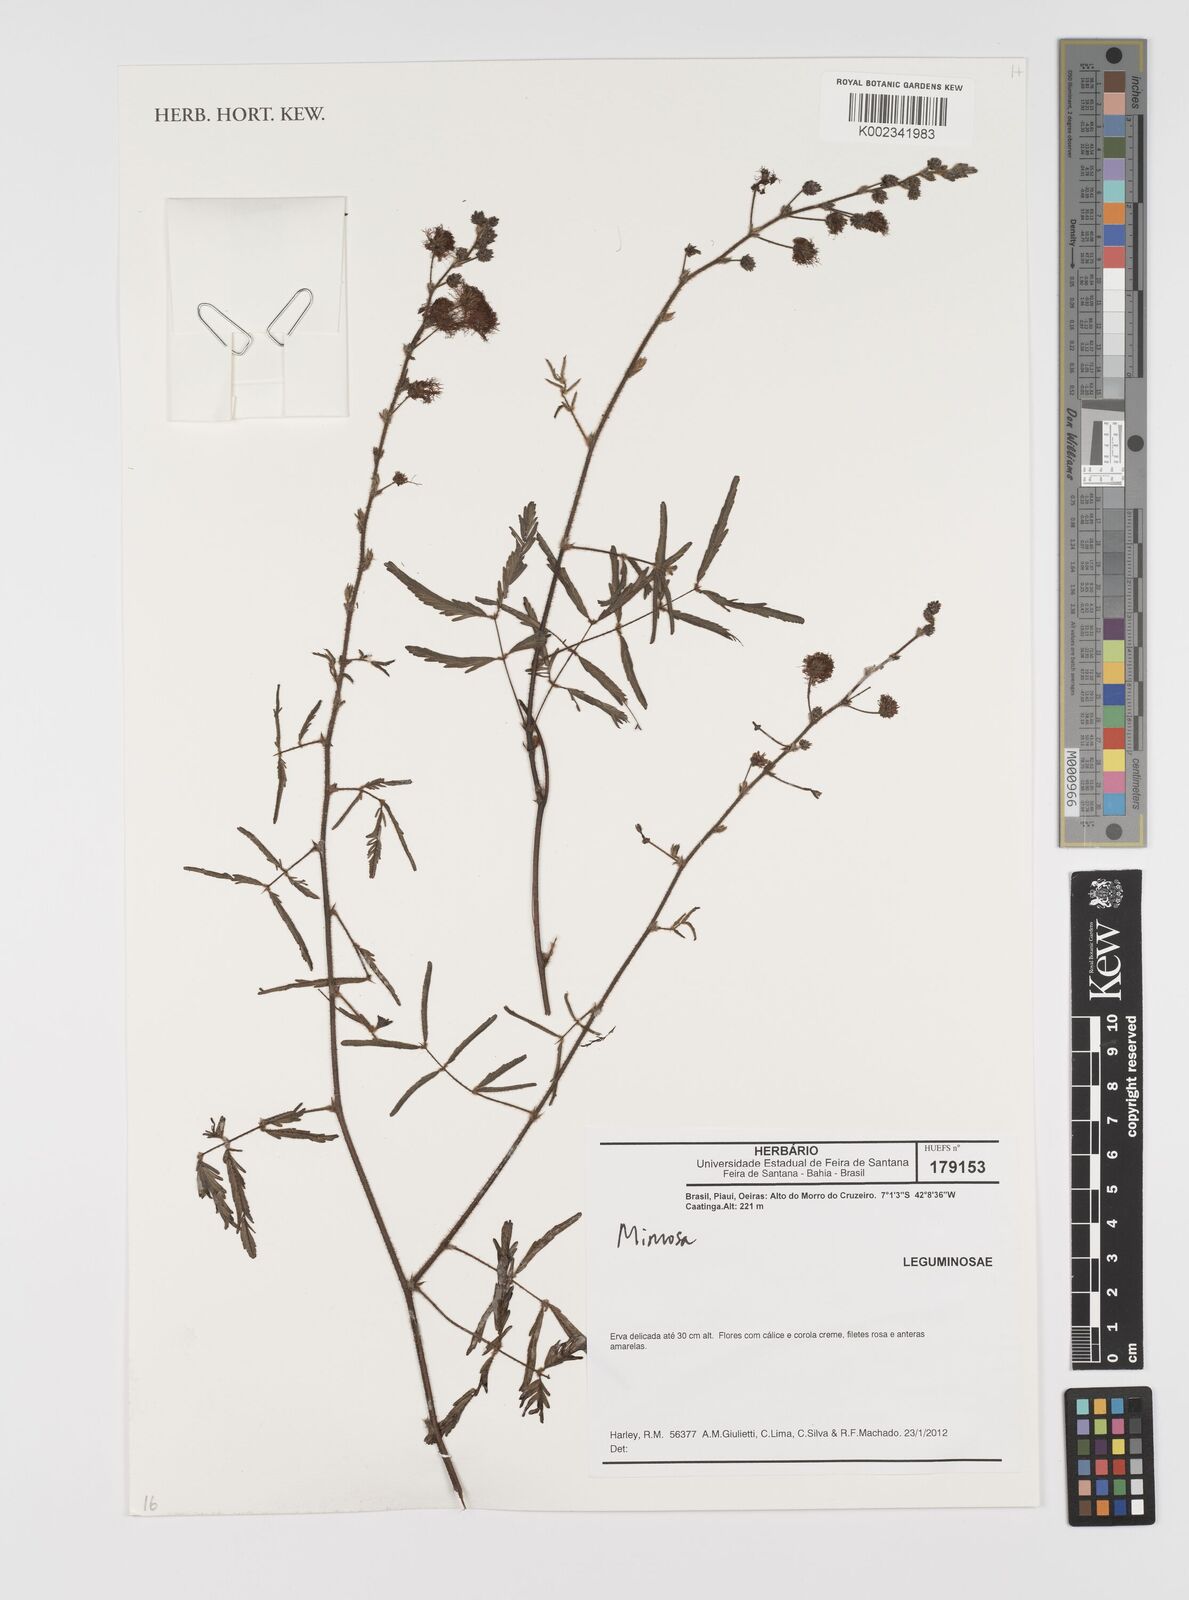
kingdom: Plantae
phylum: Tracheophyta
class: Magnoliopsida
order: Fabales
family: Fabaceae
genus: Mimosa
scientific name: Mimosa
